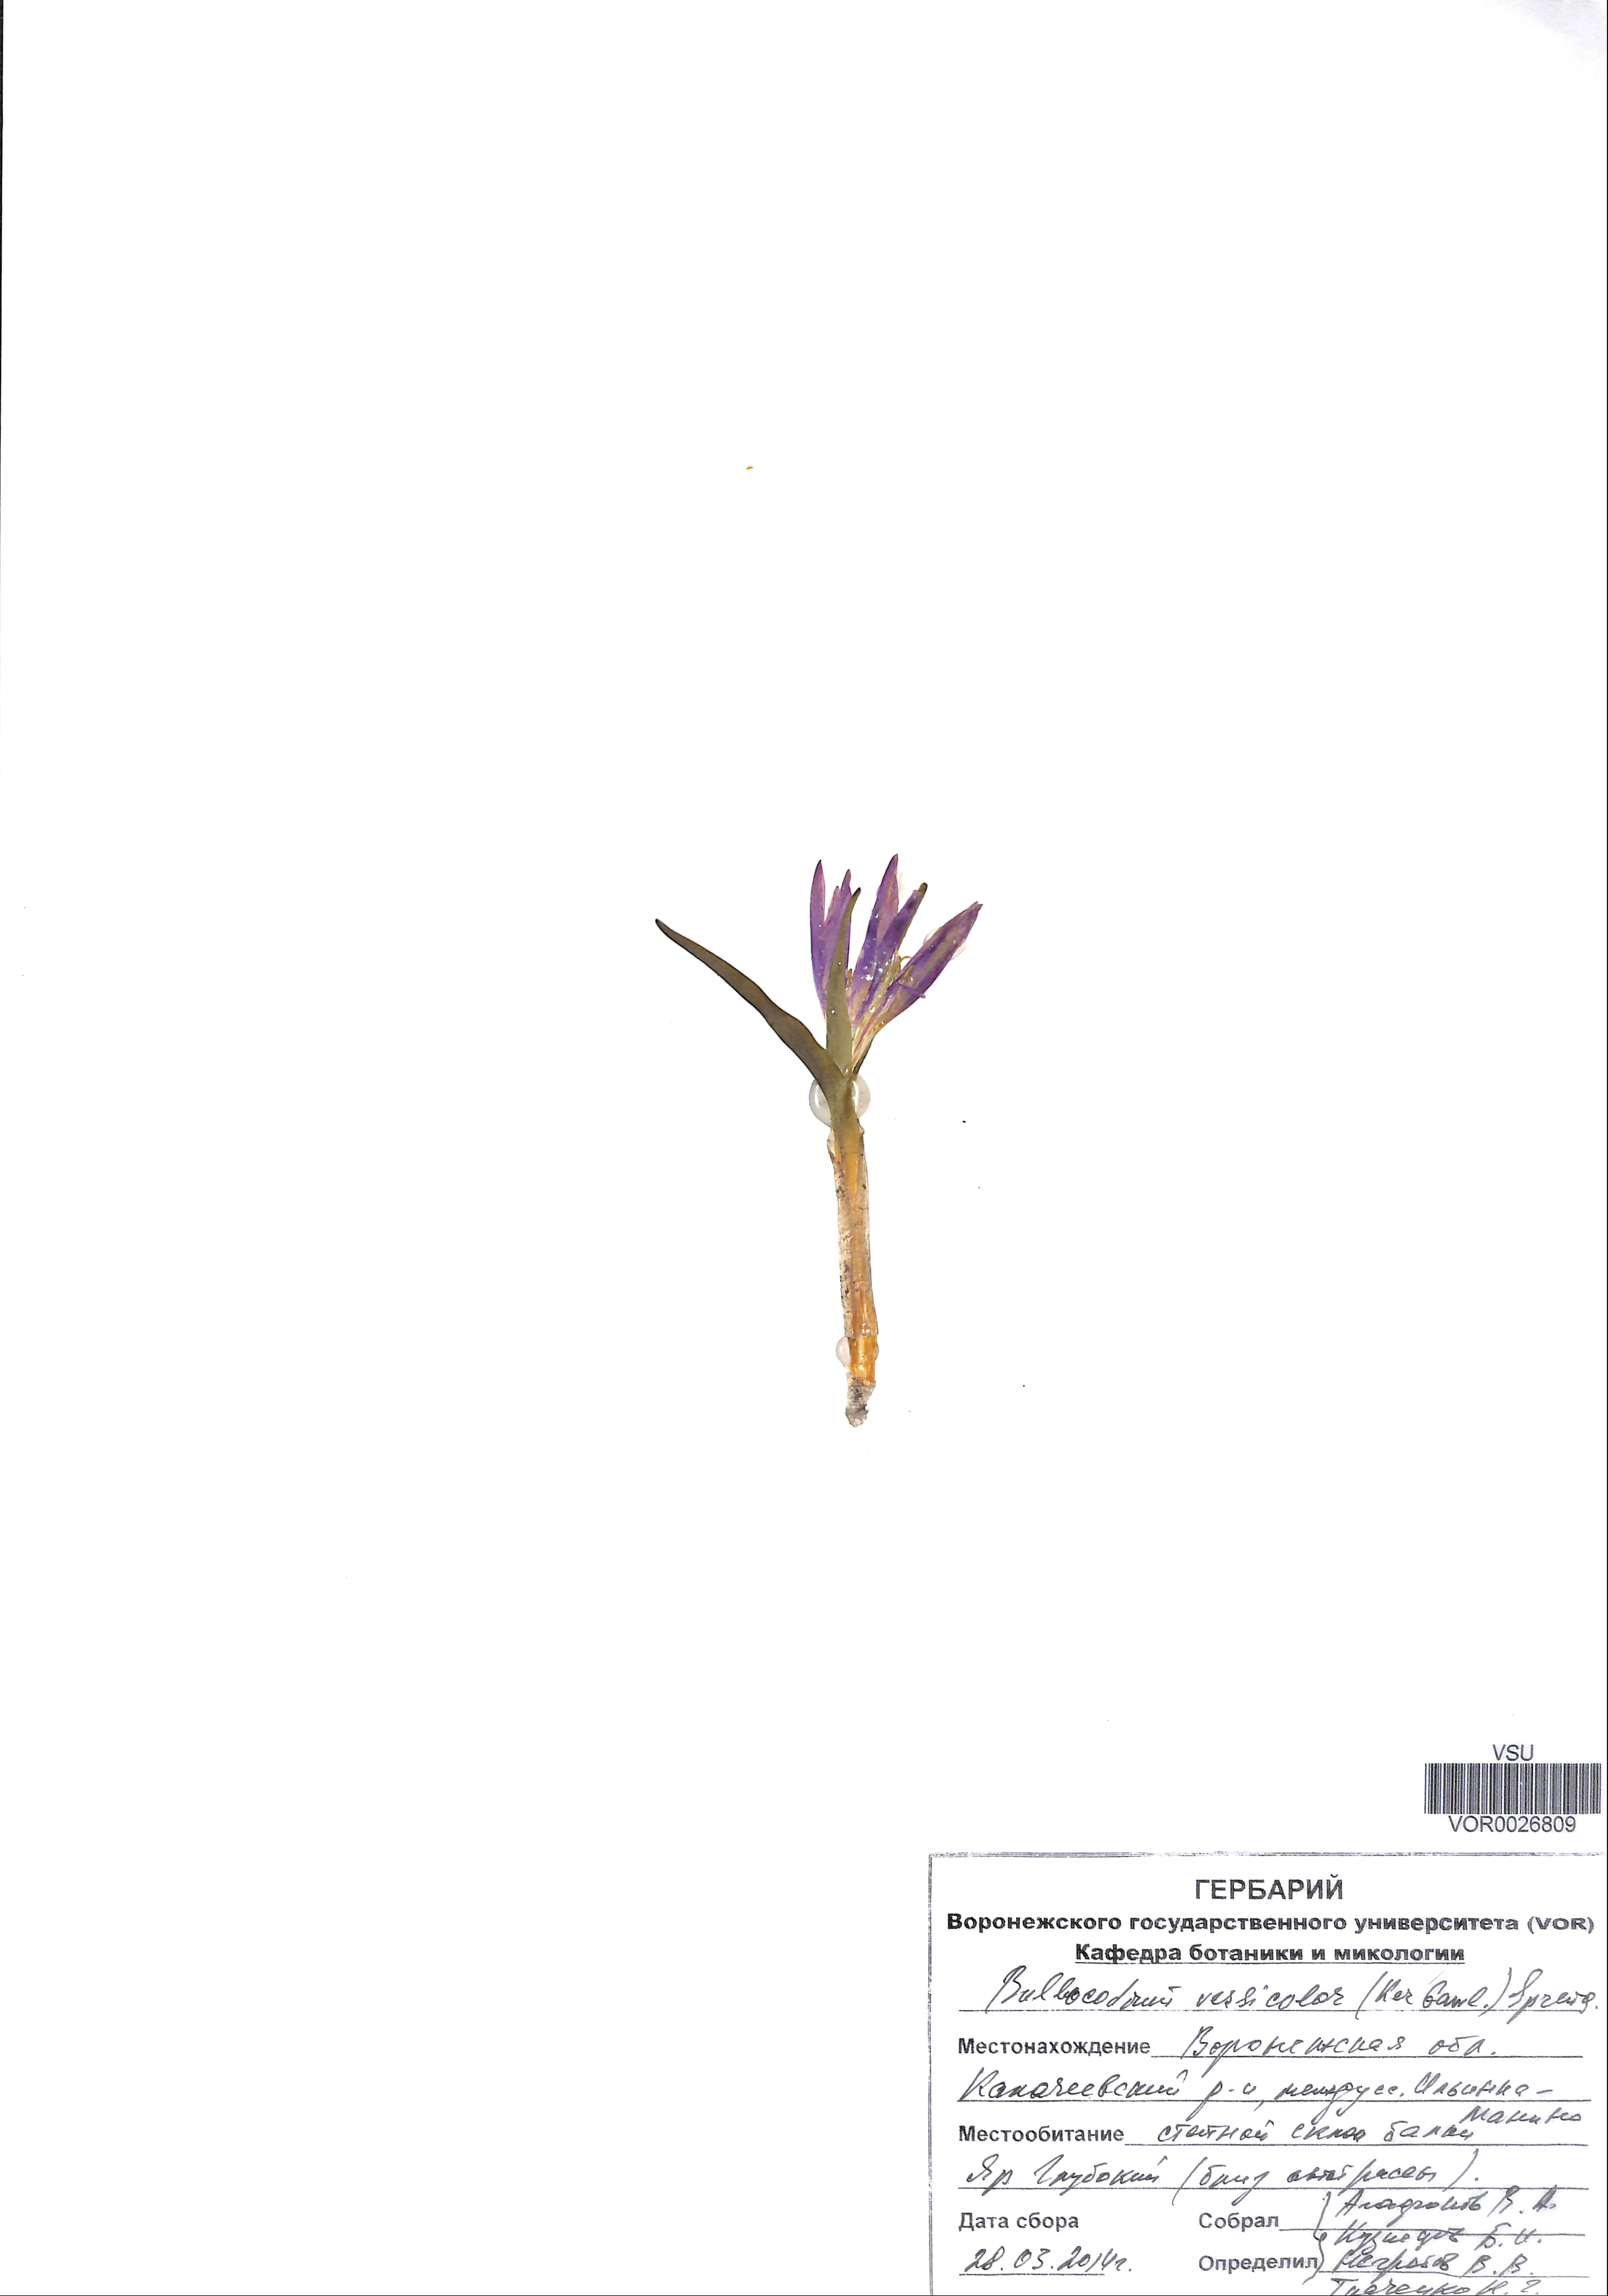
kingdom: Plantae
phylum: Tracheophyta
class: Liliopsida
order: Liliales
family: Colchicaceae
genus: Colchicum
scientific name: Colchicum bulbocodium
